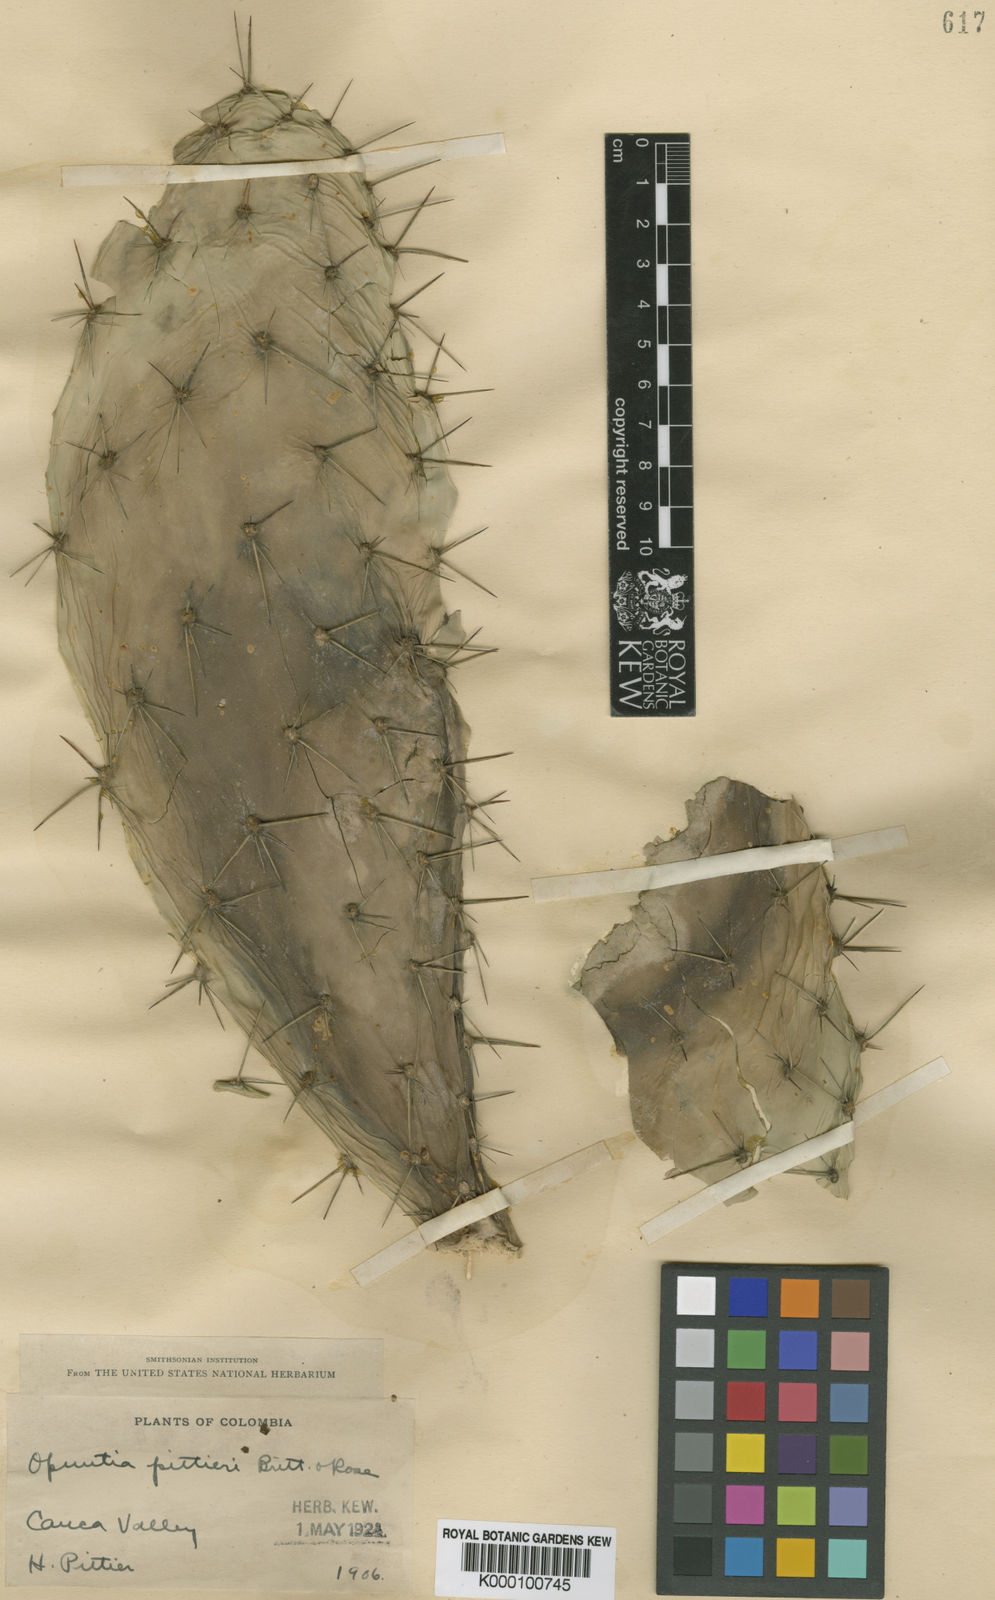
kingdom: Plantae
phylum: Tracheophyta
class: Magnoliopsida
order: Caryophyllales
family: Cactaceae
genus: Opuntia
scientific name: Opuntia pittieri
